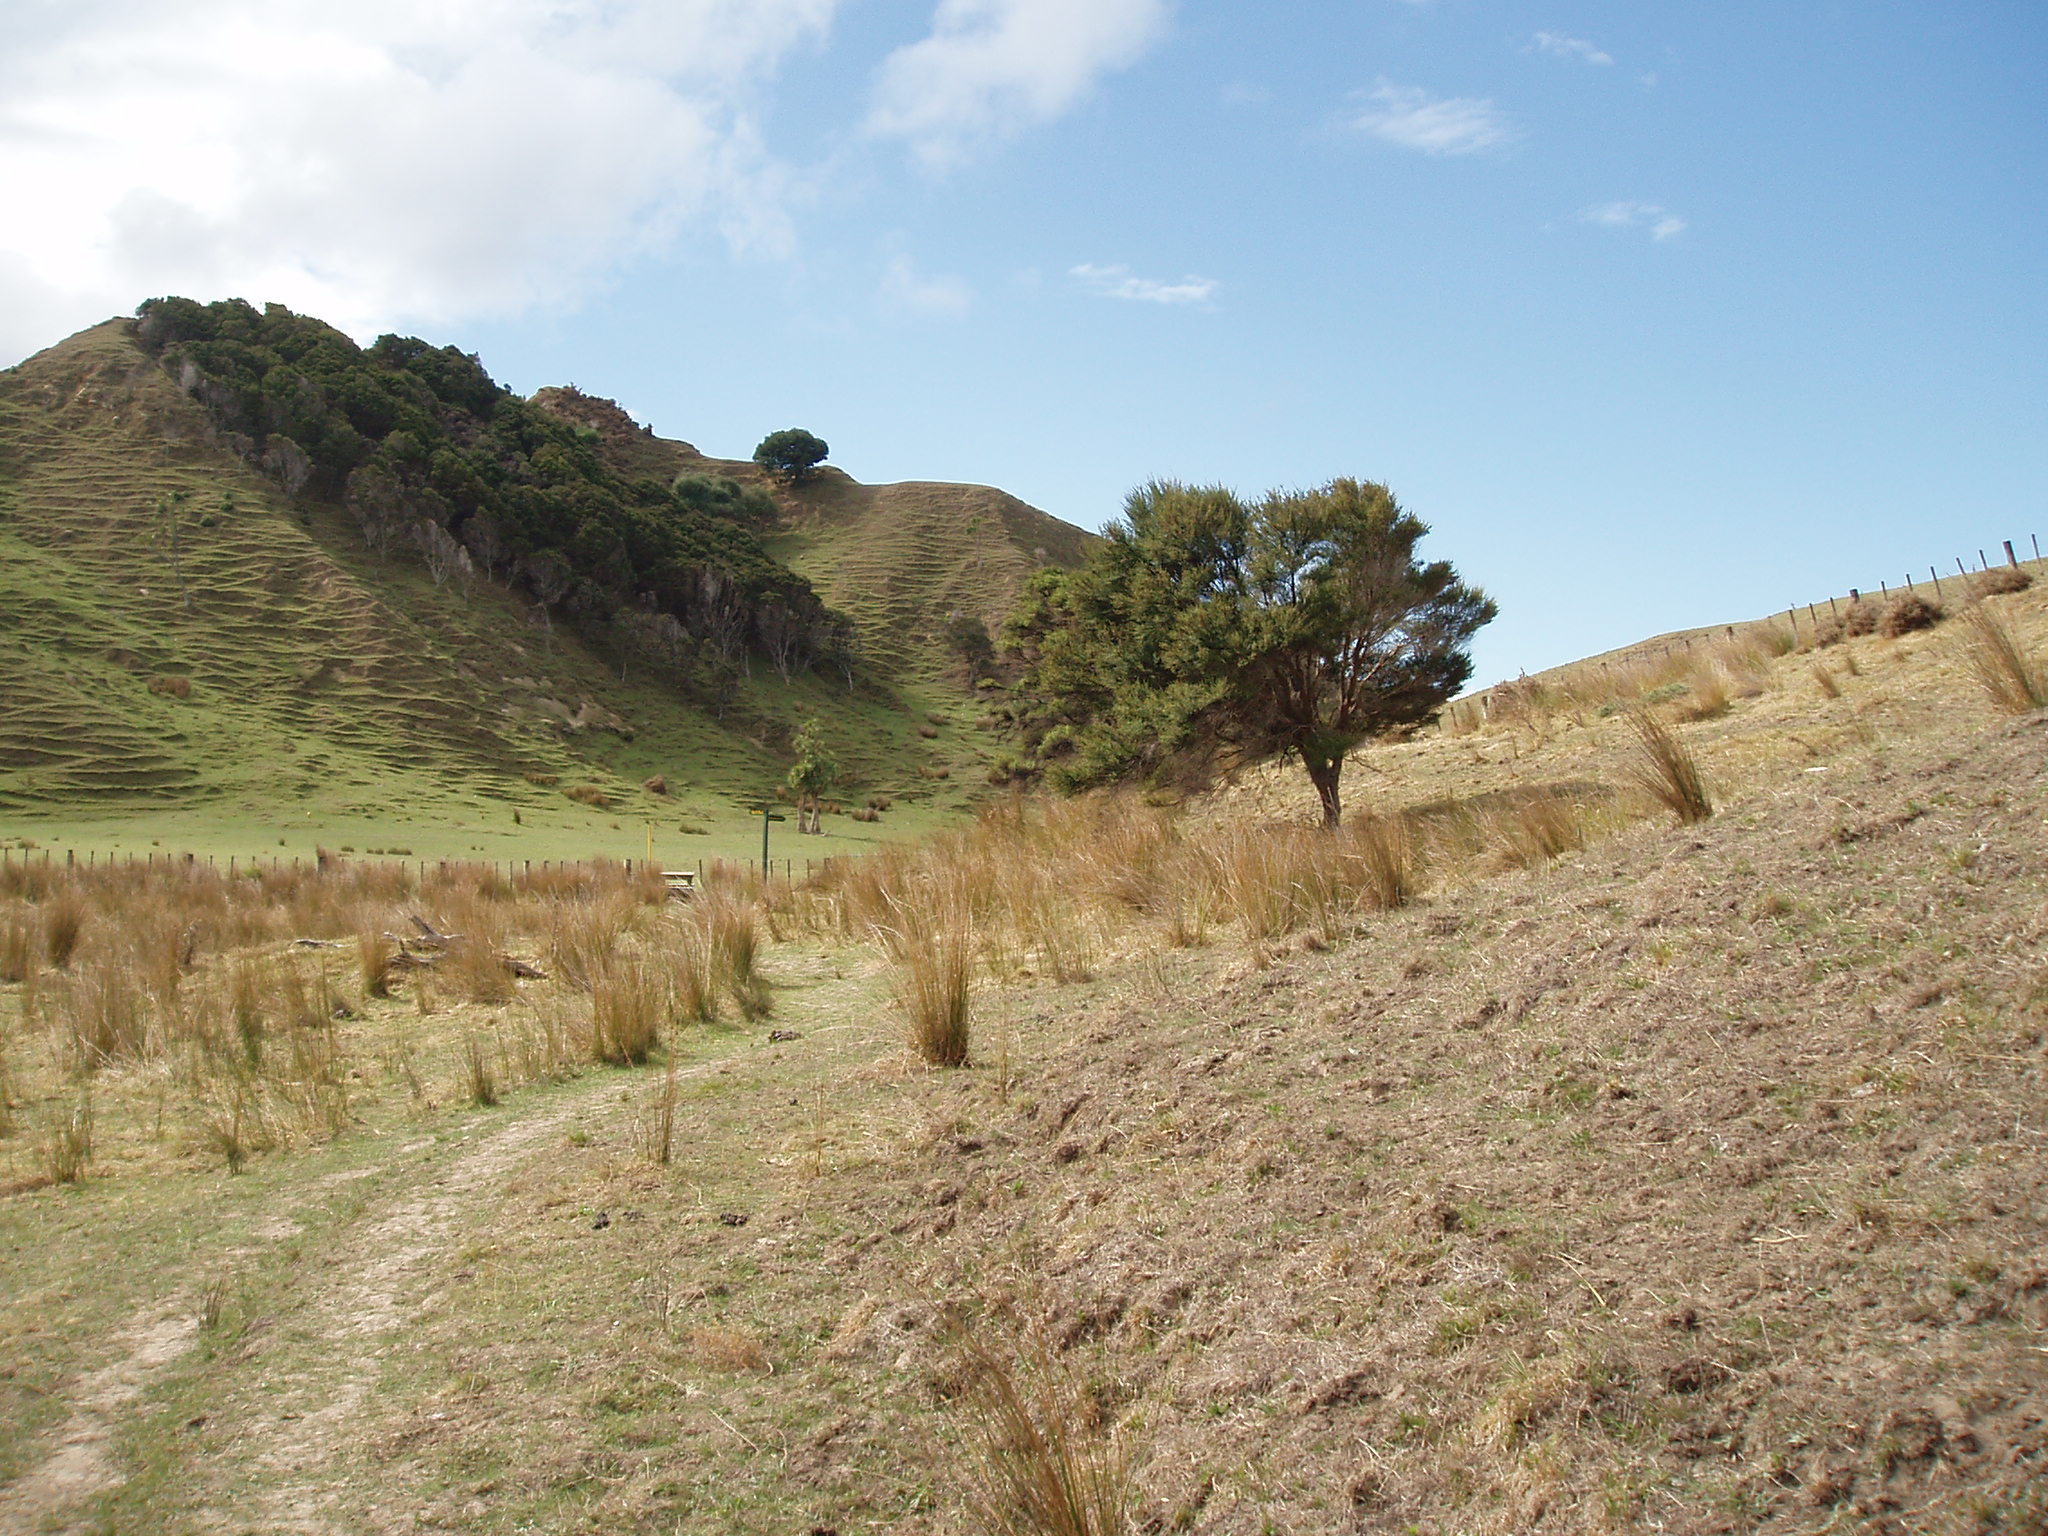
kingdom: Plantae
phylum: Tracheophyta
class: Magnoliopsida
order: Myrtales
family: Myrtaceae
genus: Kunzea
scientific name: Kunzea robusta
